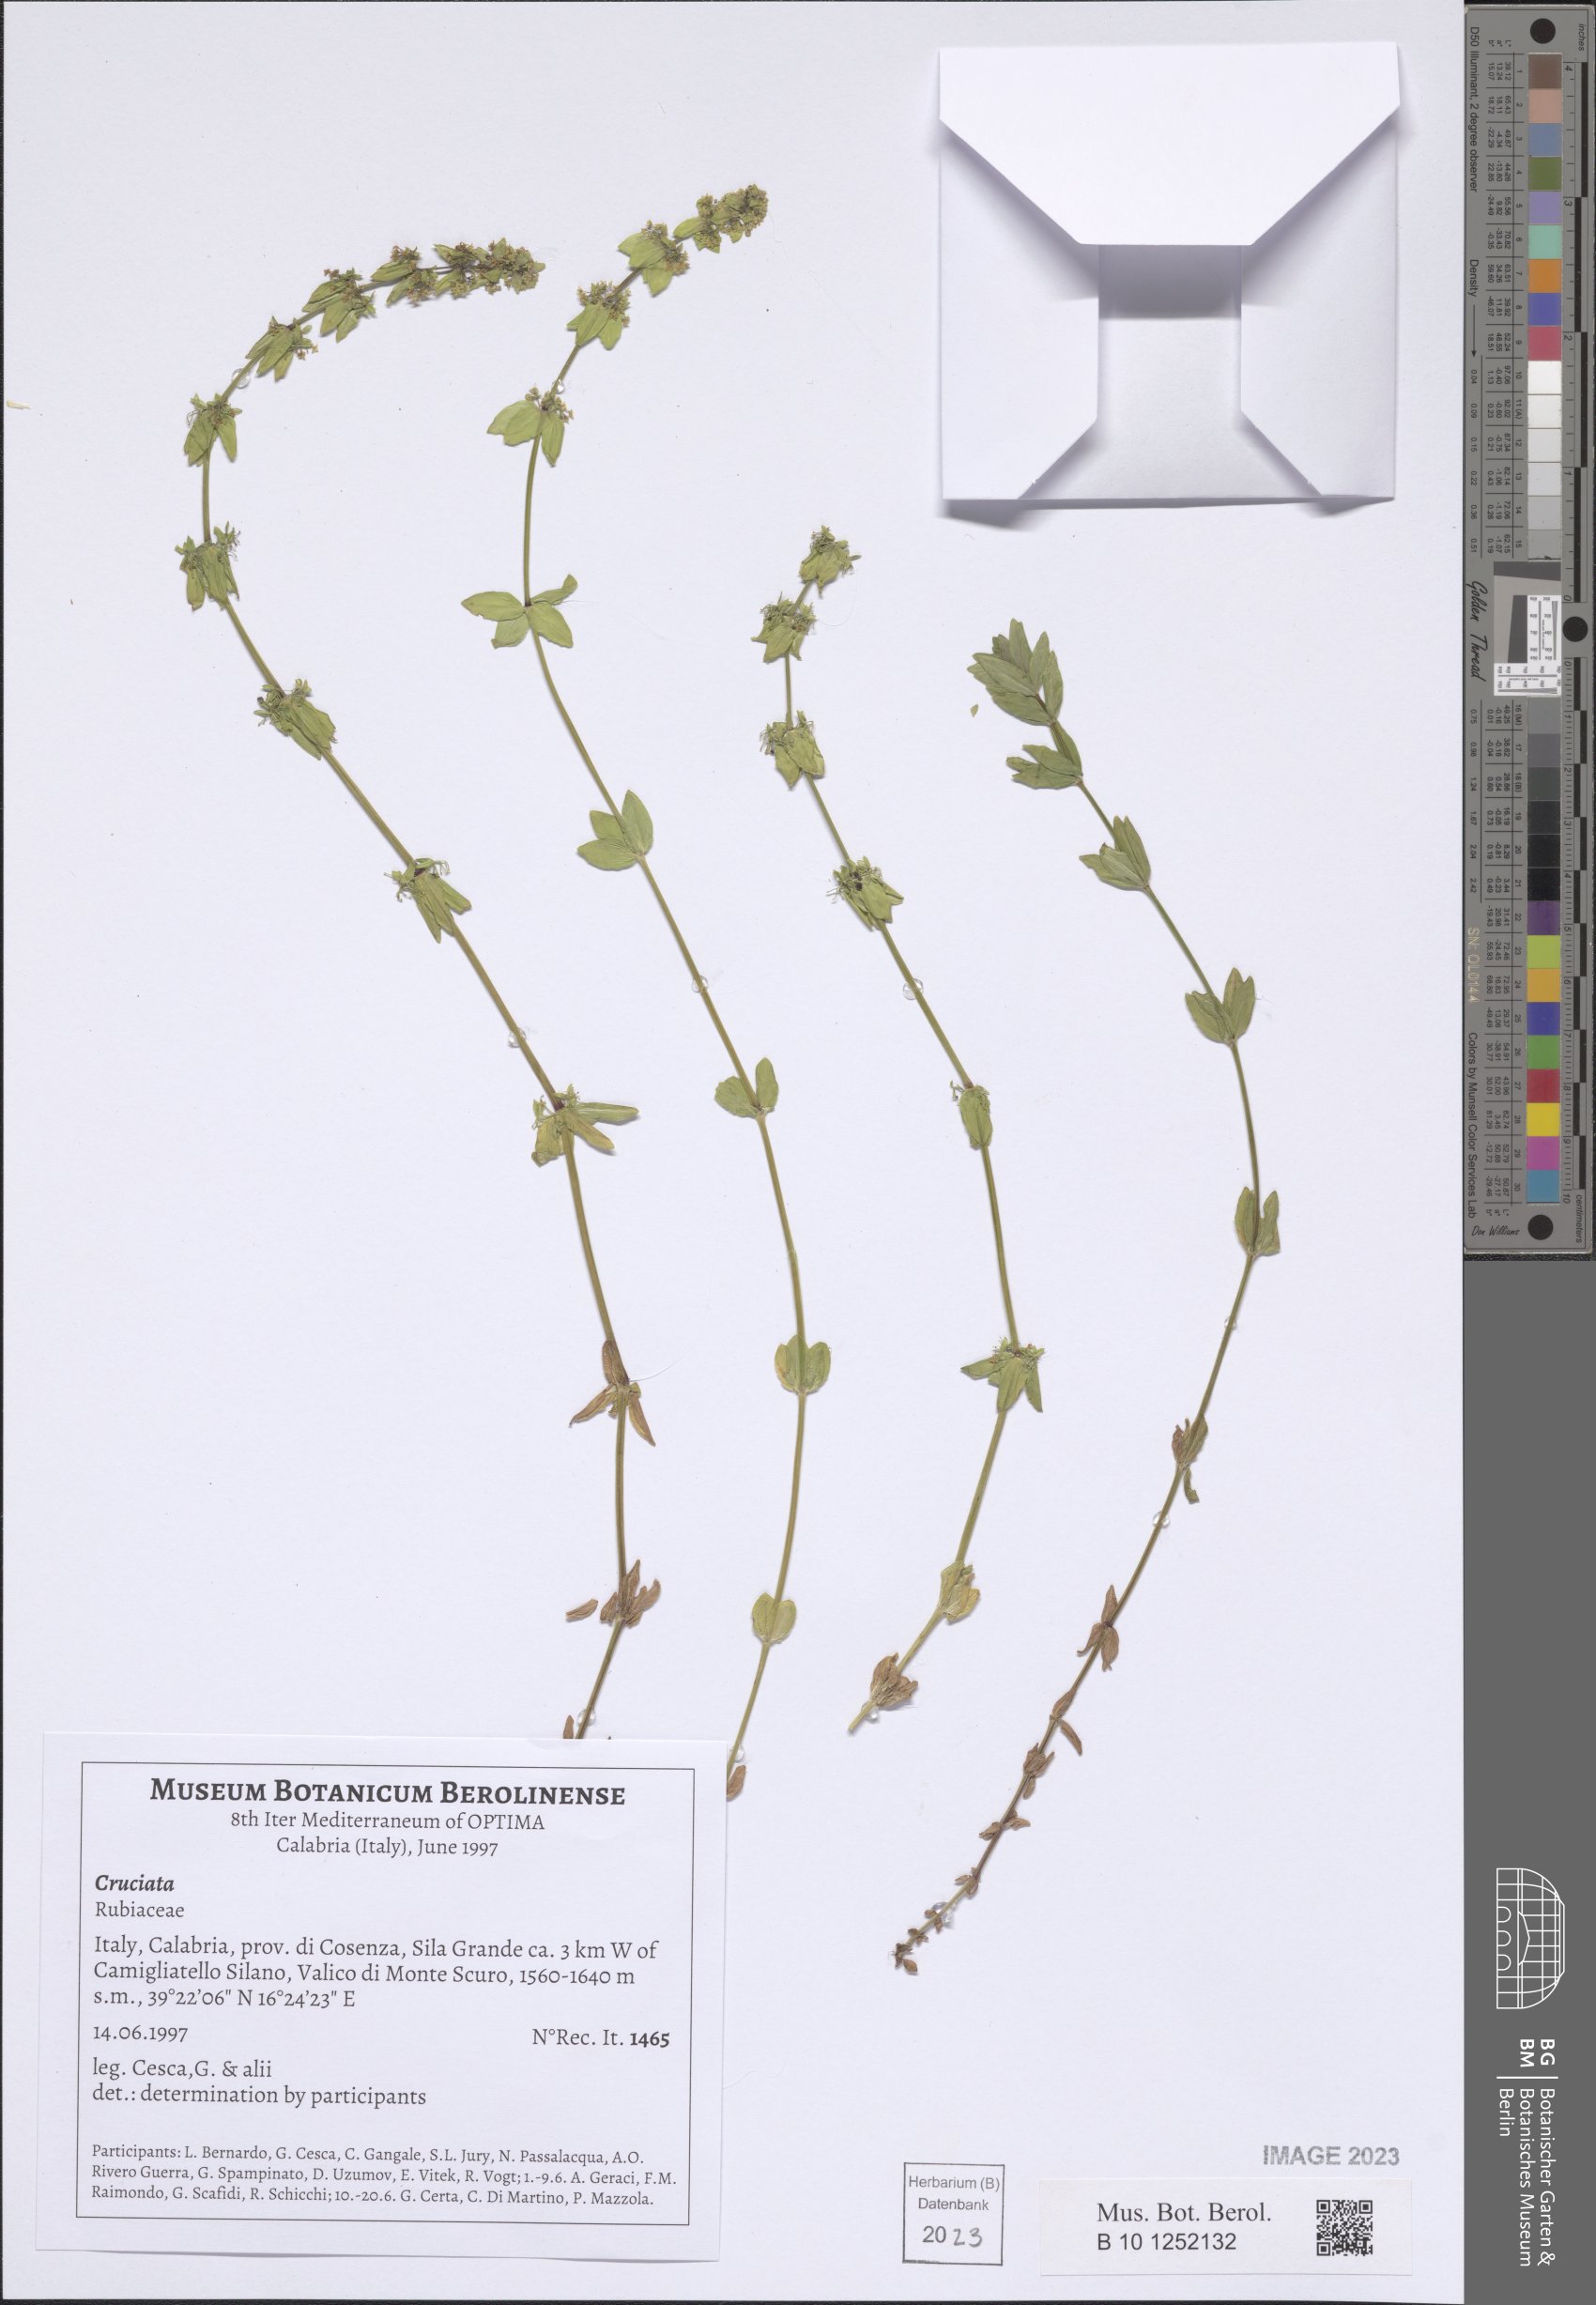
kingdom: Plantae
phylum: Tracheophyta
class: Magnoliopsida
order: Gentianales
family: Rubiaceae
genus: Cruciata
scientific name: Cruciata
